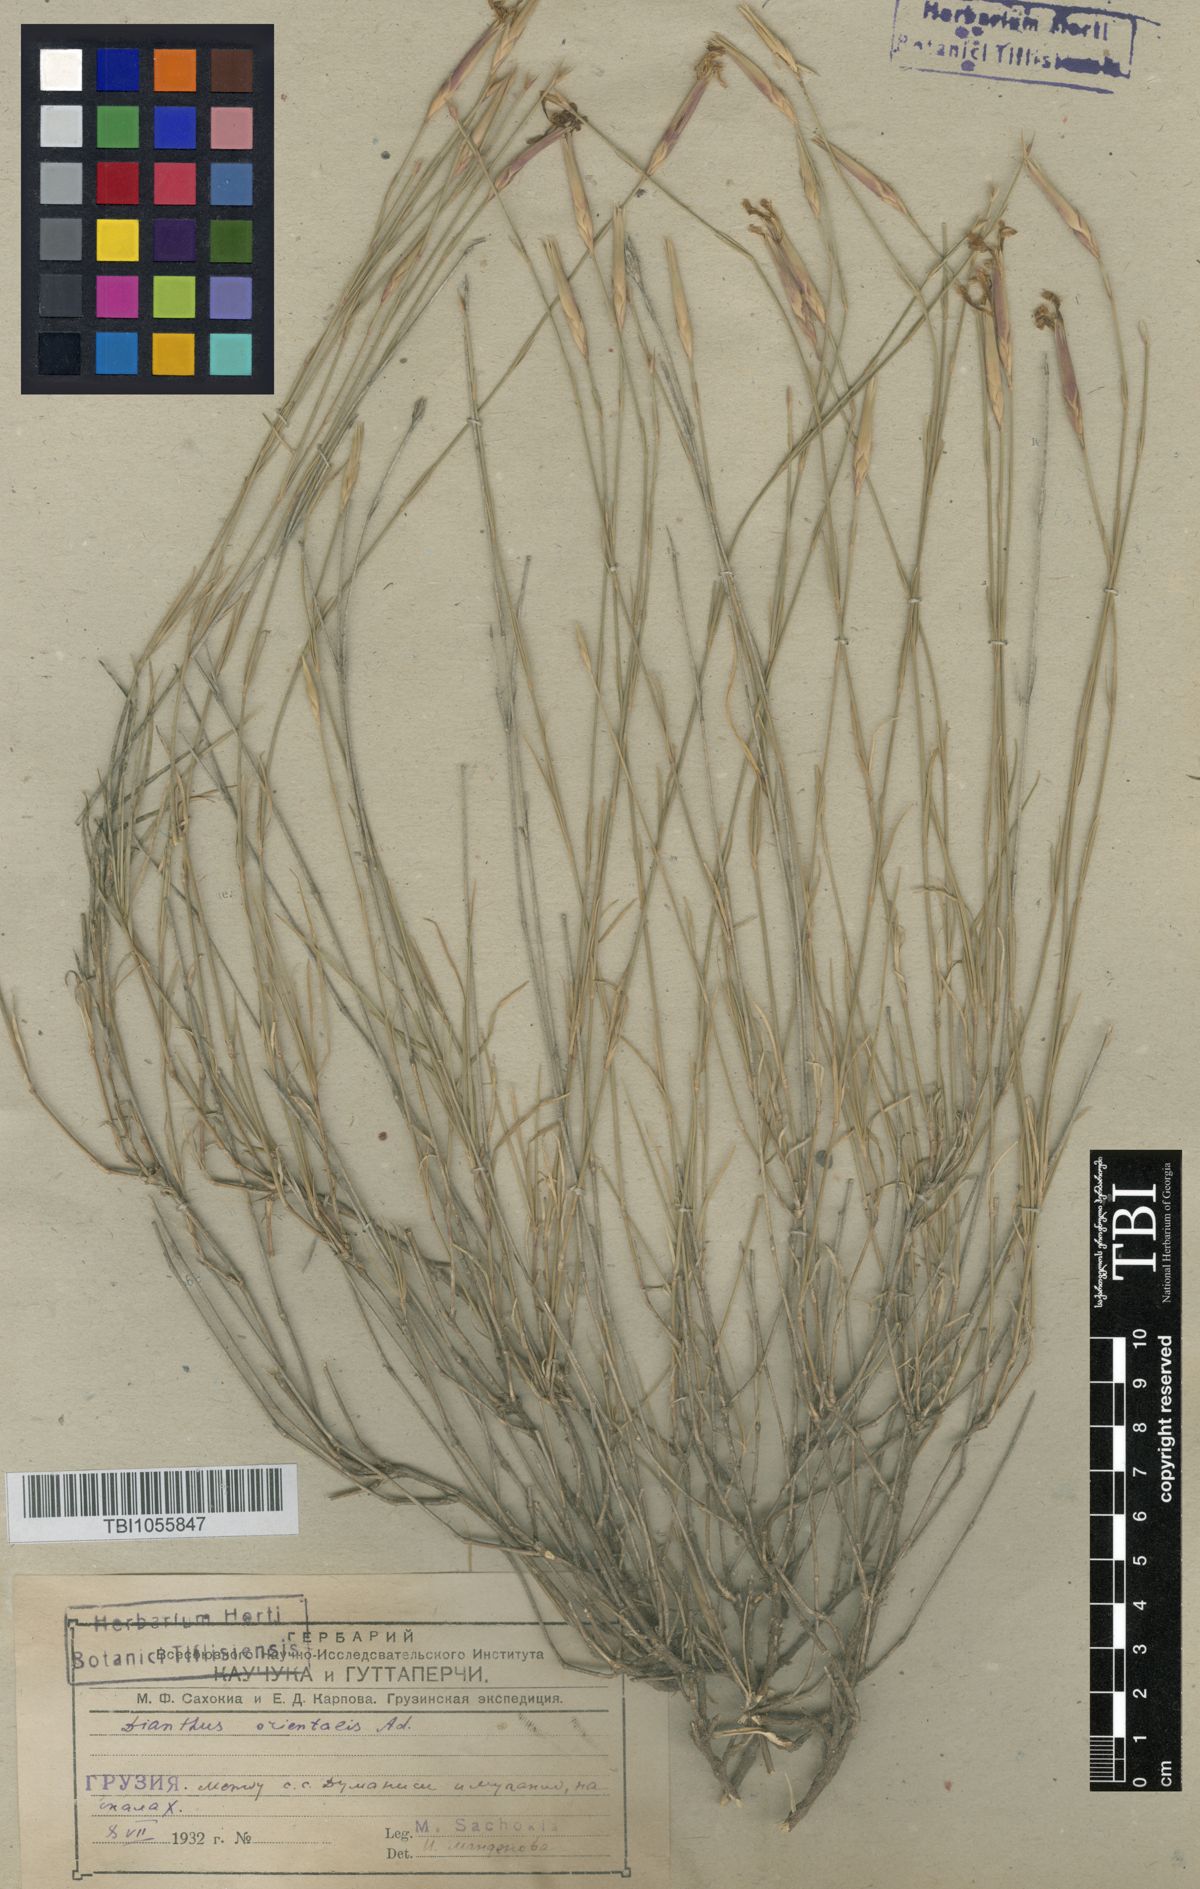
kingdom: Plantae
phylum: Tracheophyta
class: Magnoliopsida
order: Caryophyllales
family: Caryophyllaceae
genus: Dianthus
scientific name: Dianthus orientalis
